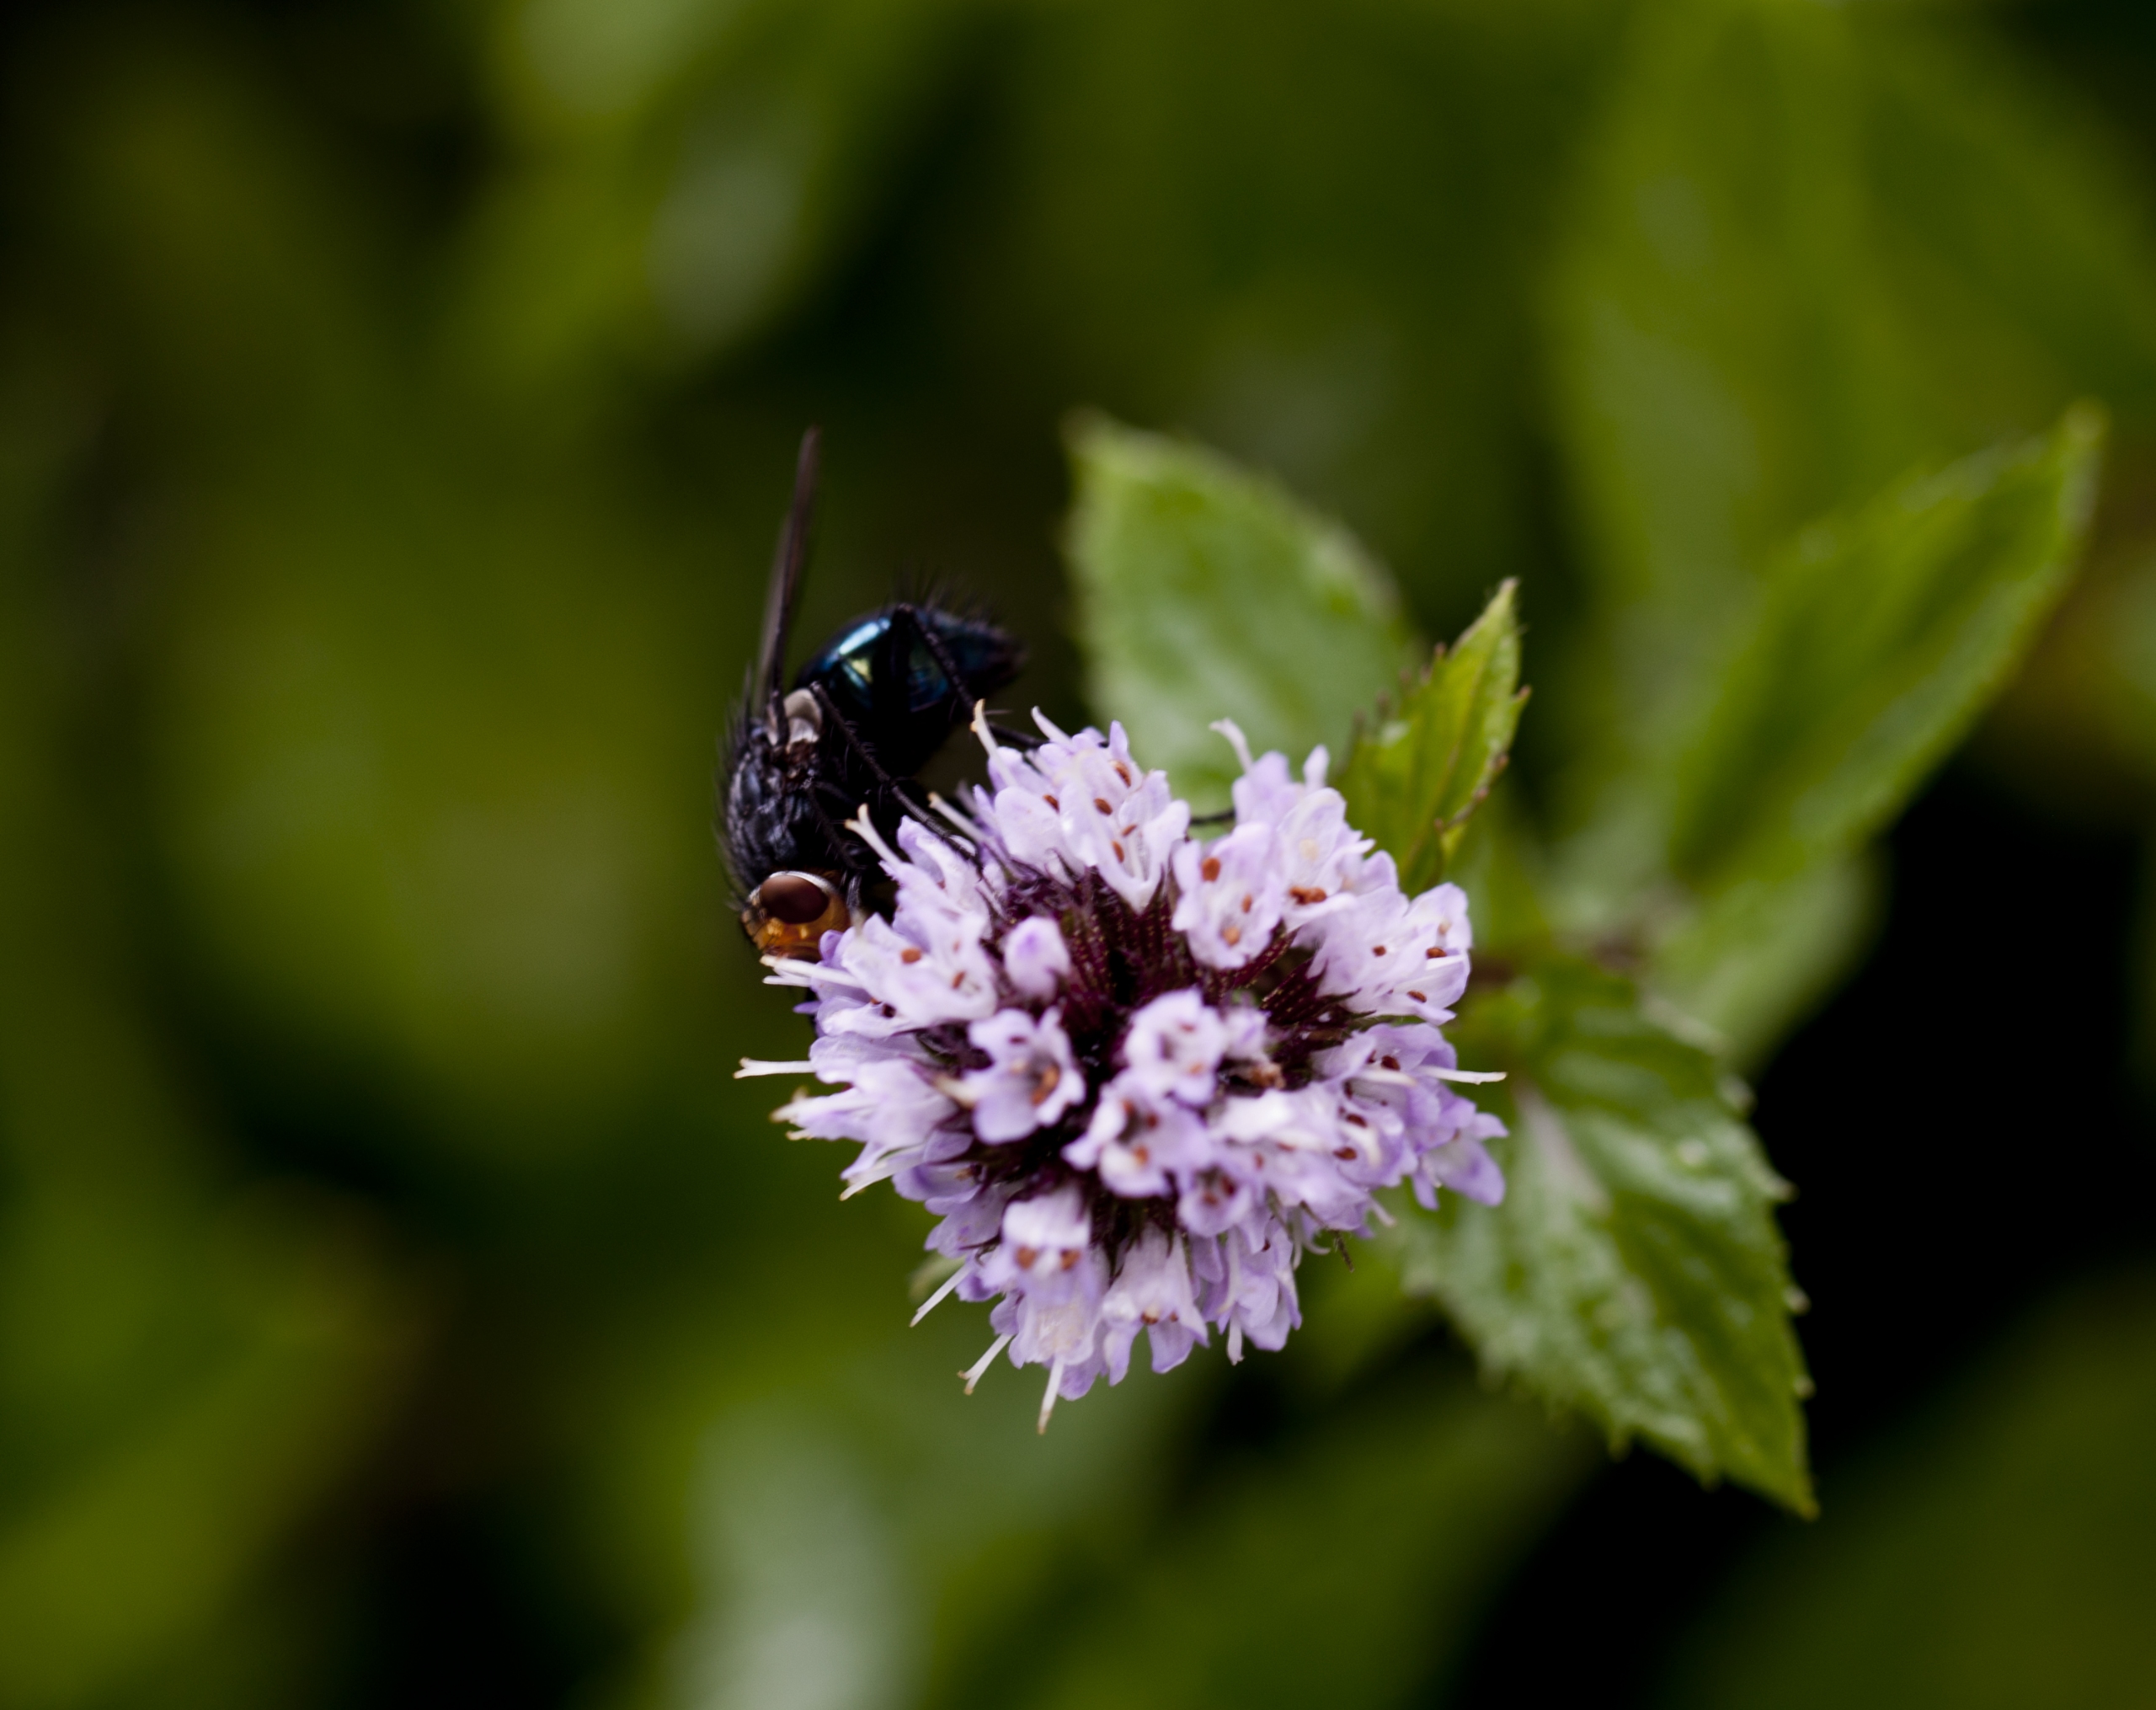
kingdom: Plantae
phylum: Tracheophyta
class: Magnoliopsida
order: Lamiales
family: Lamiaceae
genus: Mentha
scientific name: Mentha aquatica
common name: Vand-mynte
